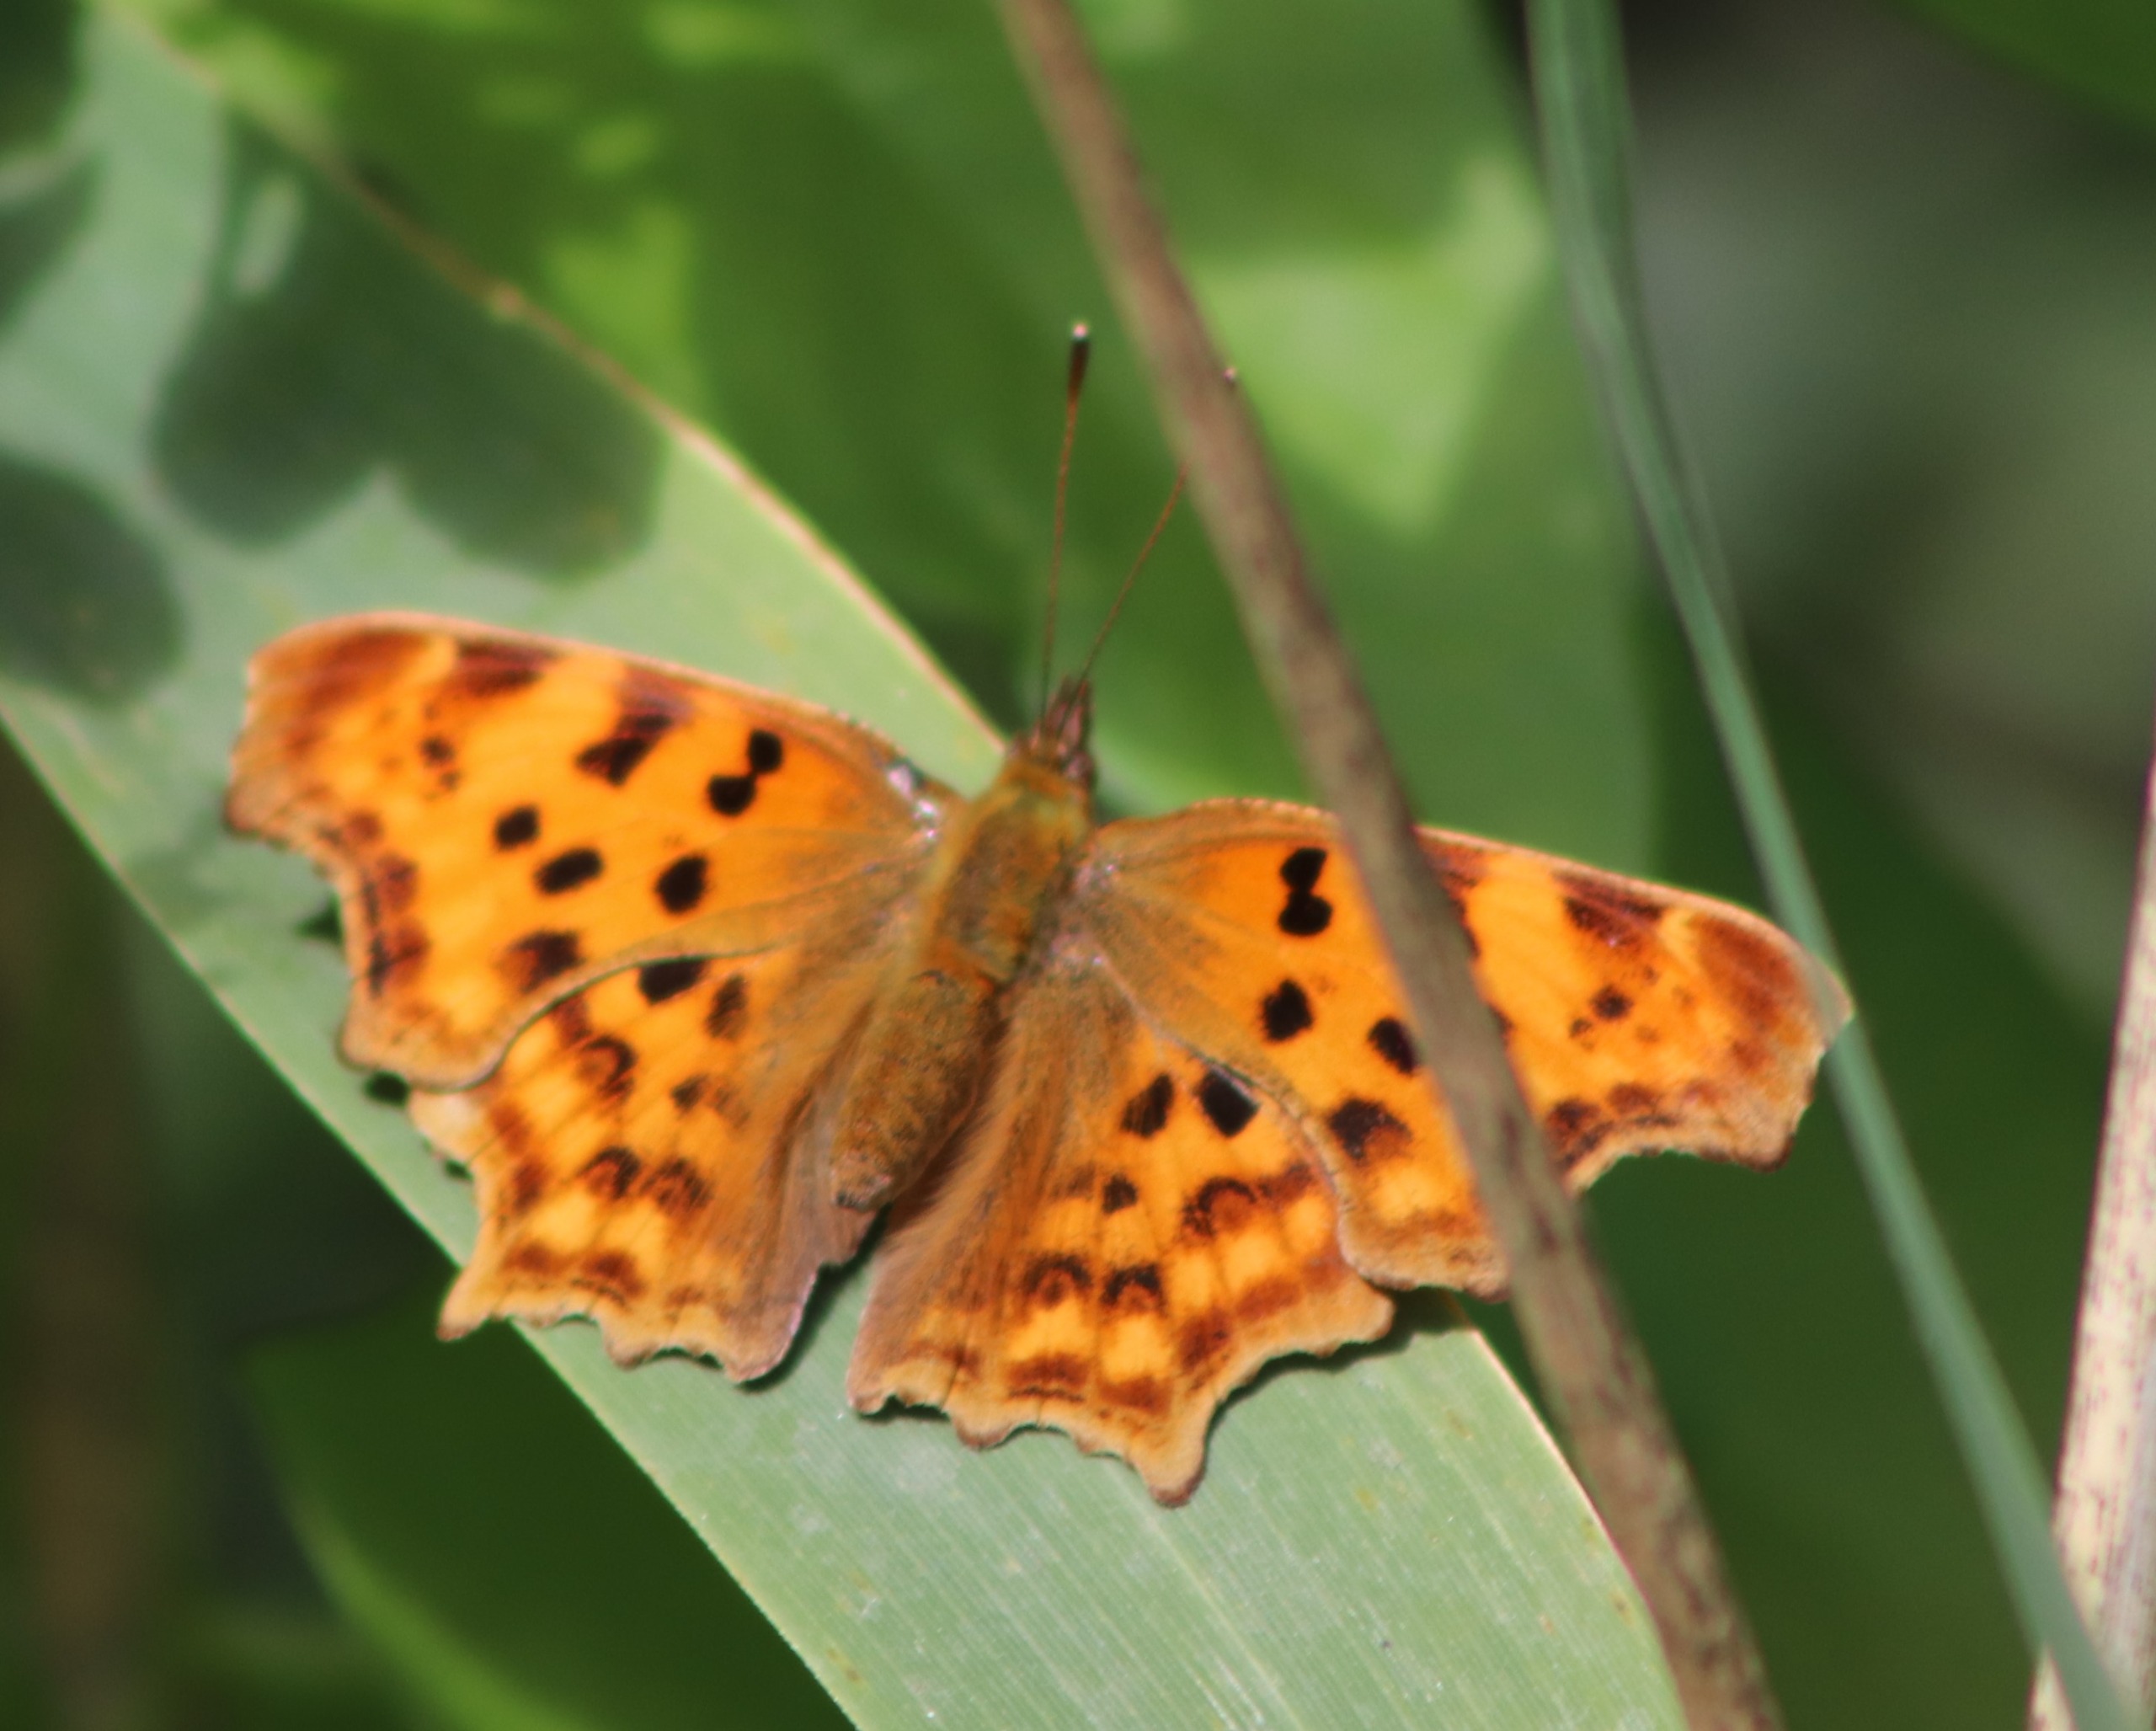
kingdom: Animalia
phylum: Arthropoda
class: Insecta
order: Lepidoptera
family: Nymphalidae
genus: Polygonia
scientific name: Polygonia c-album
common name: Det hvide C
